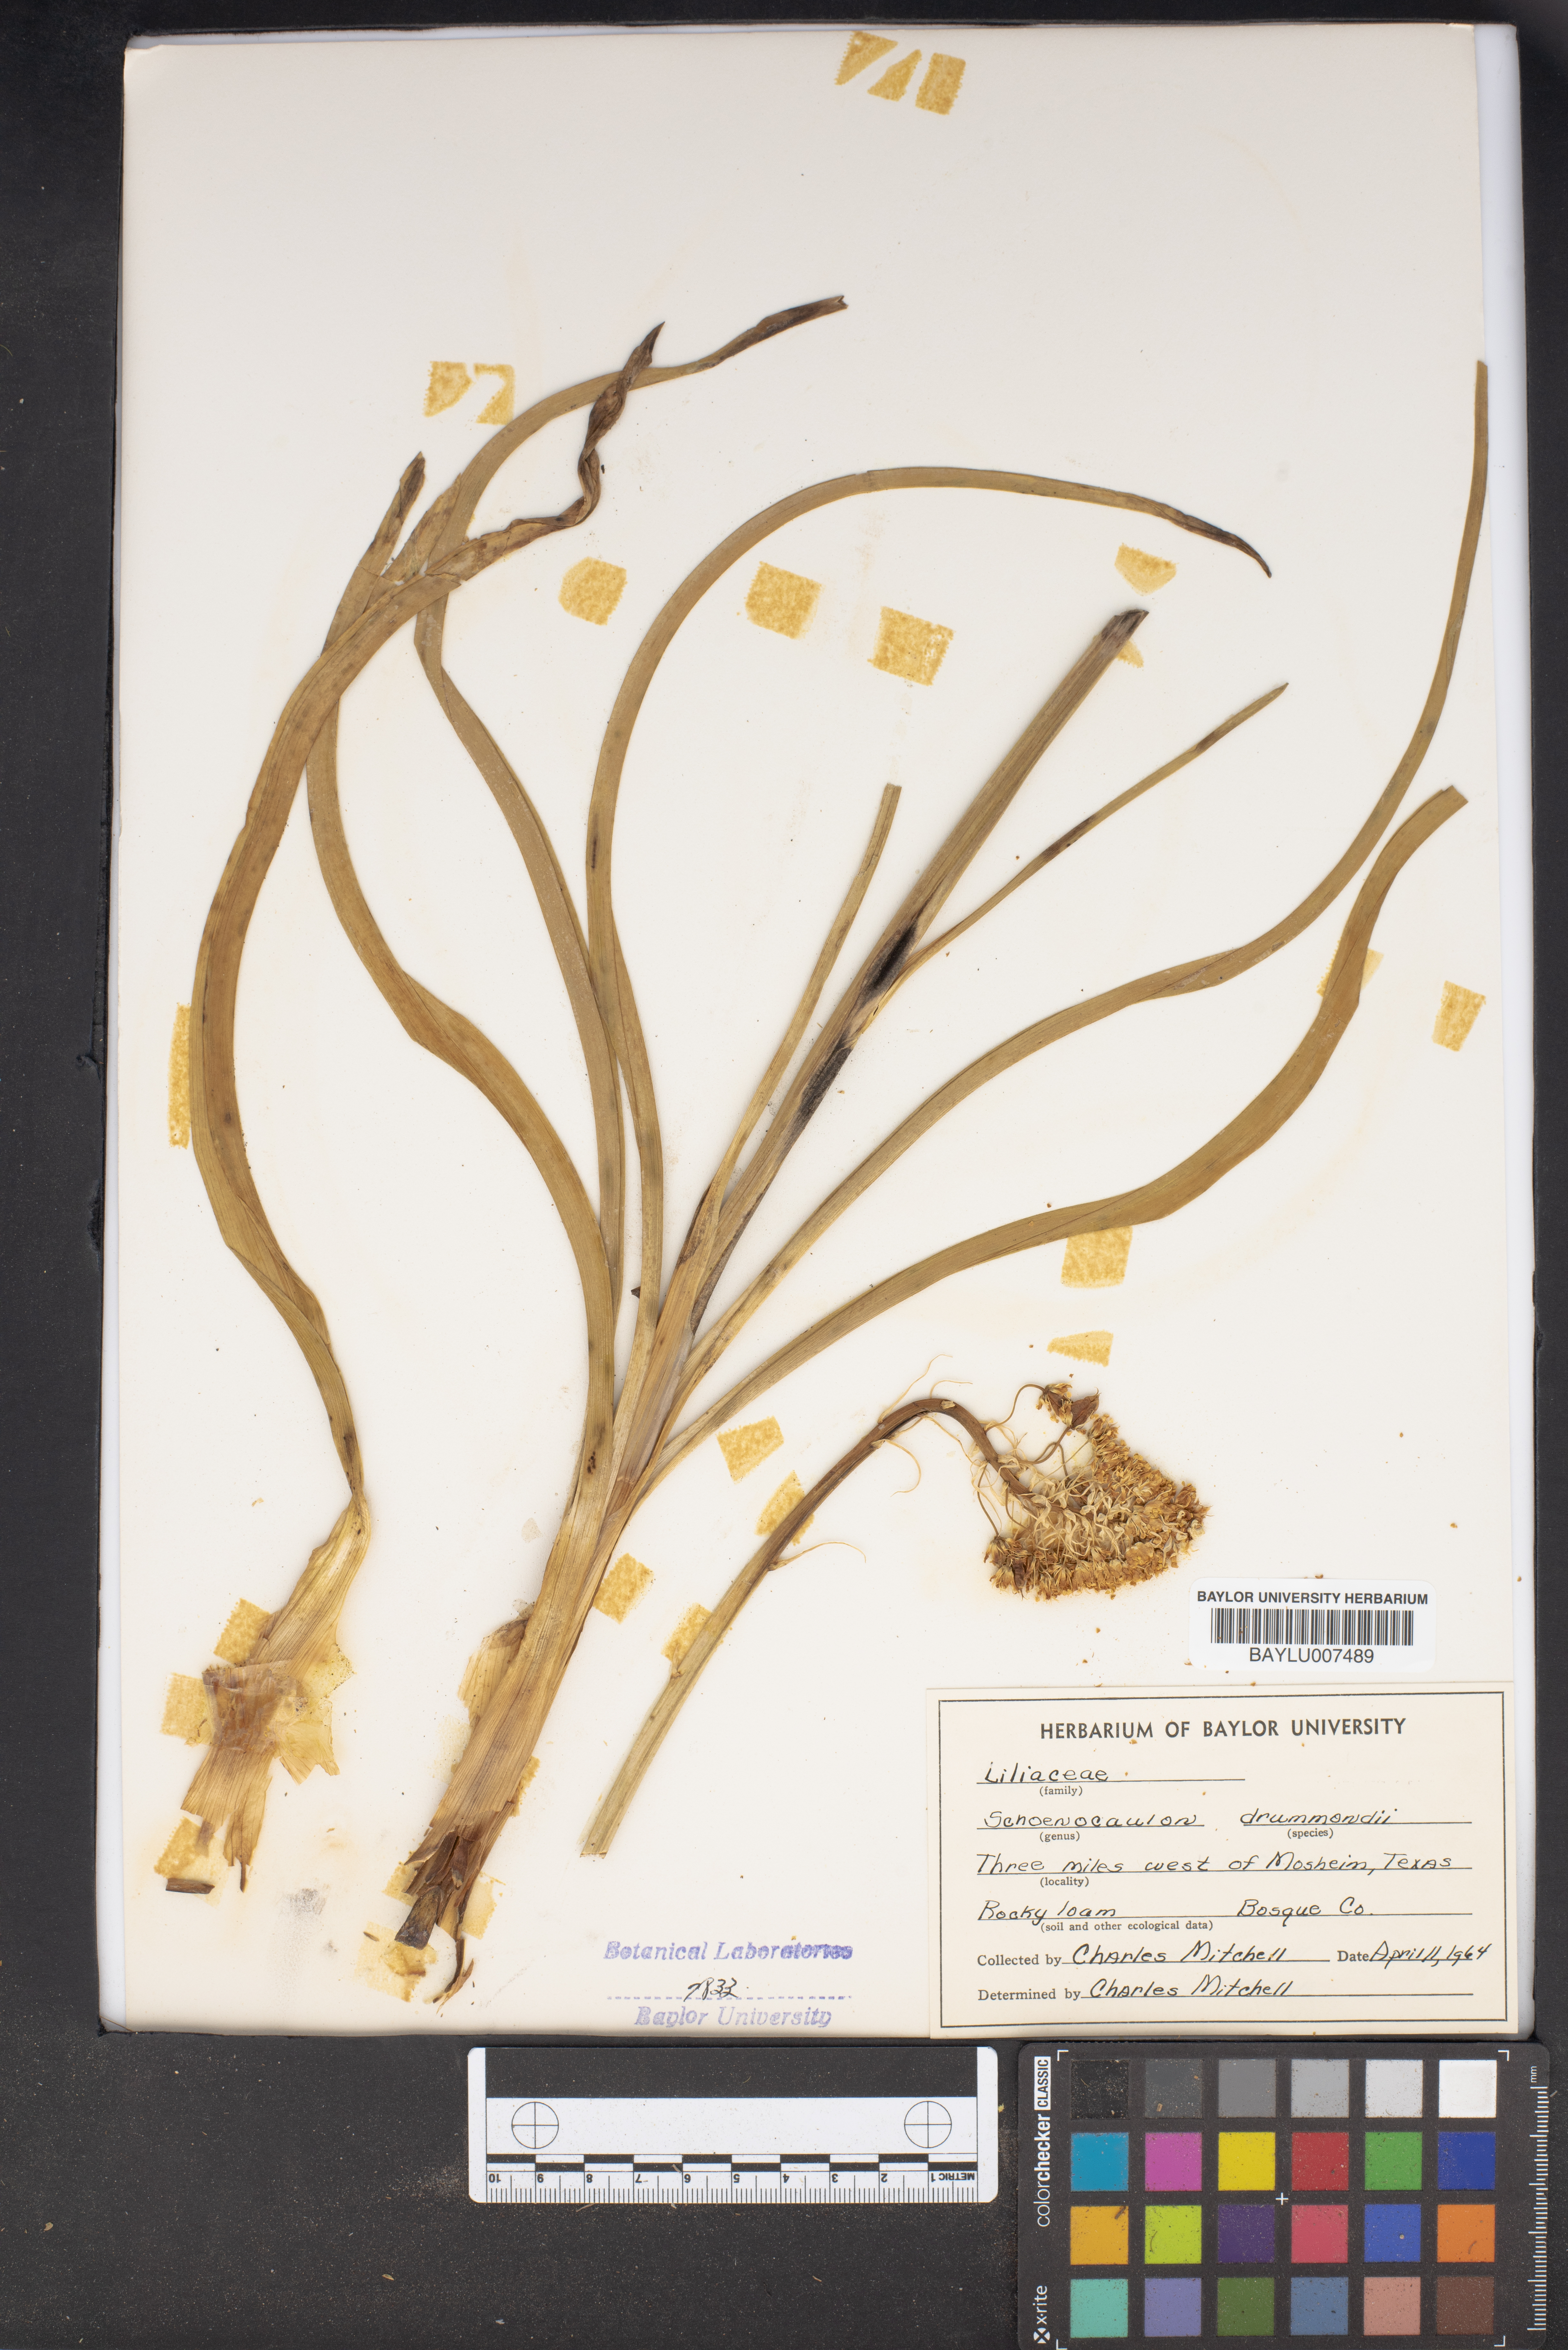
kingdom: Plantae
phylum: Tracheophyta
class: Liliopsida
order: Liliales
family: Melanthiaceae
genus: Schoenocaulon
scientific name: Schoenocaulon ghiesbreghtii
